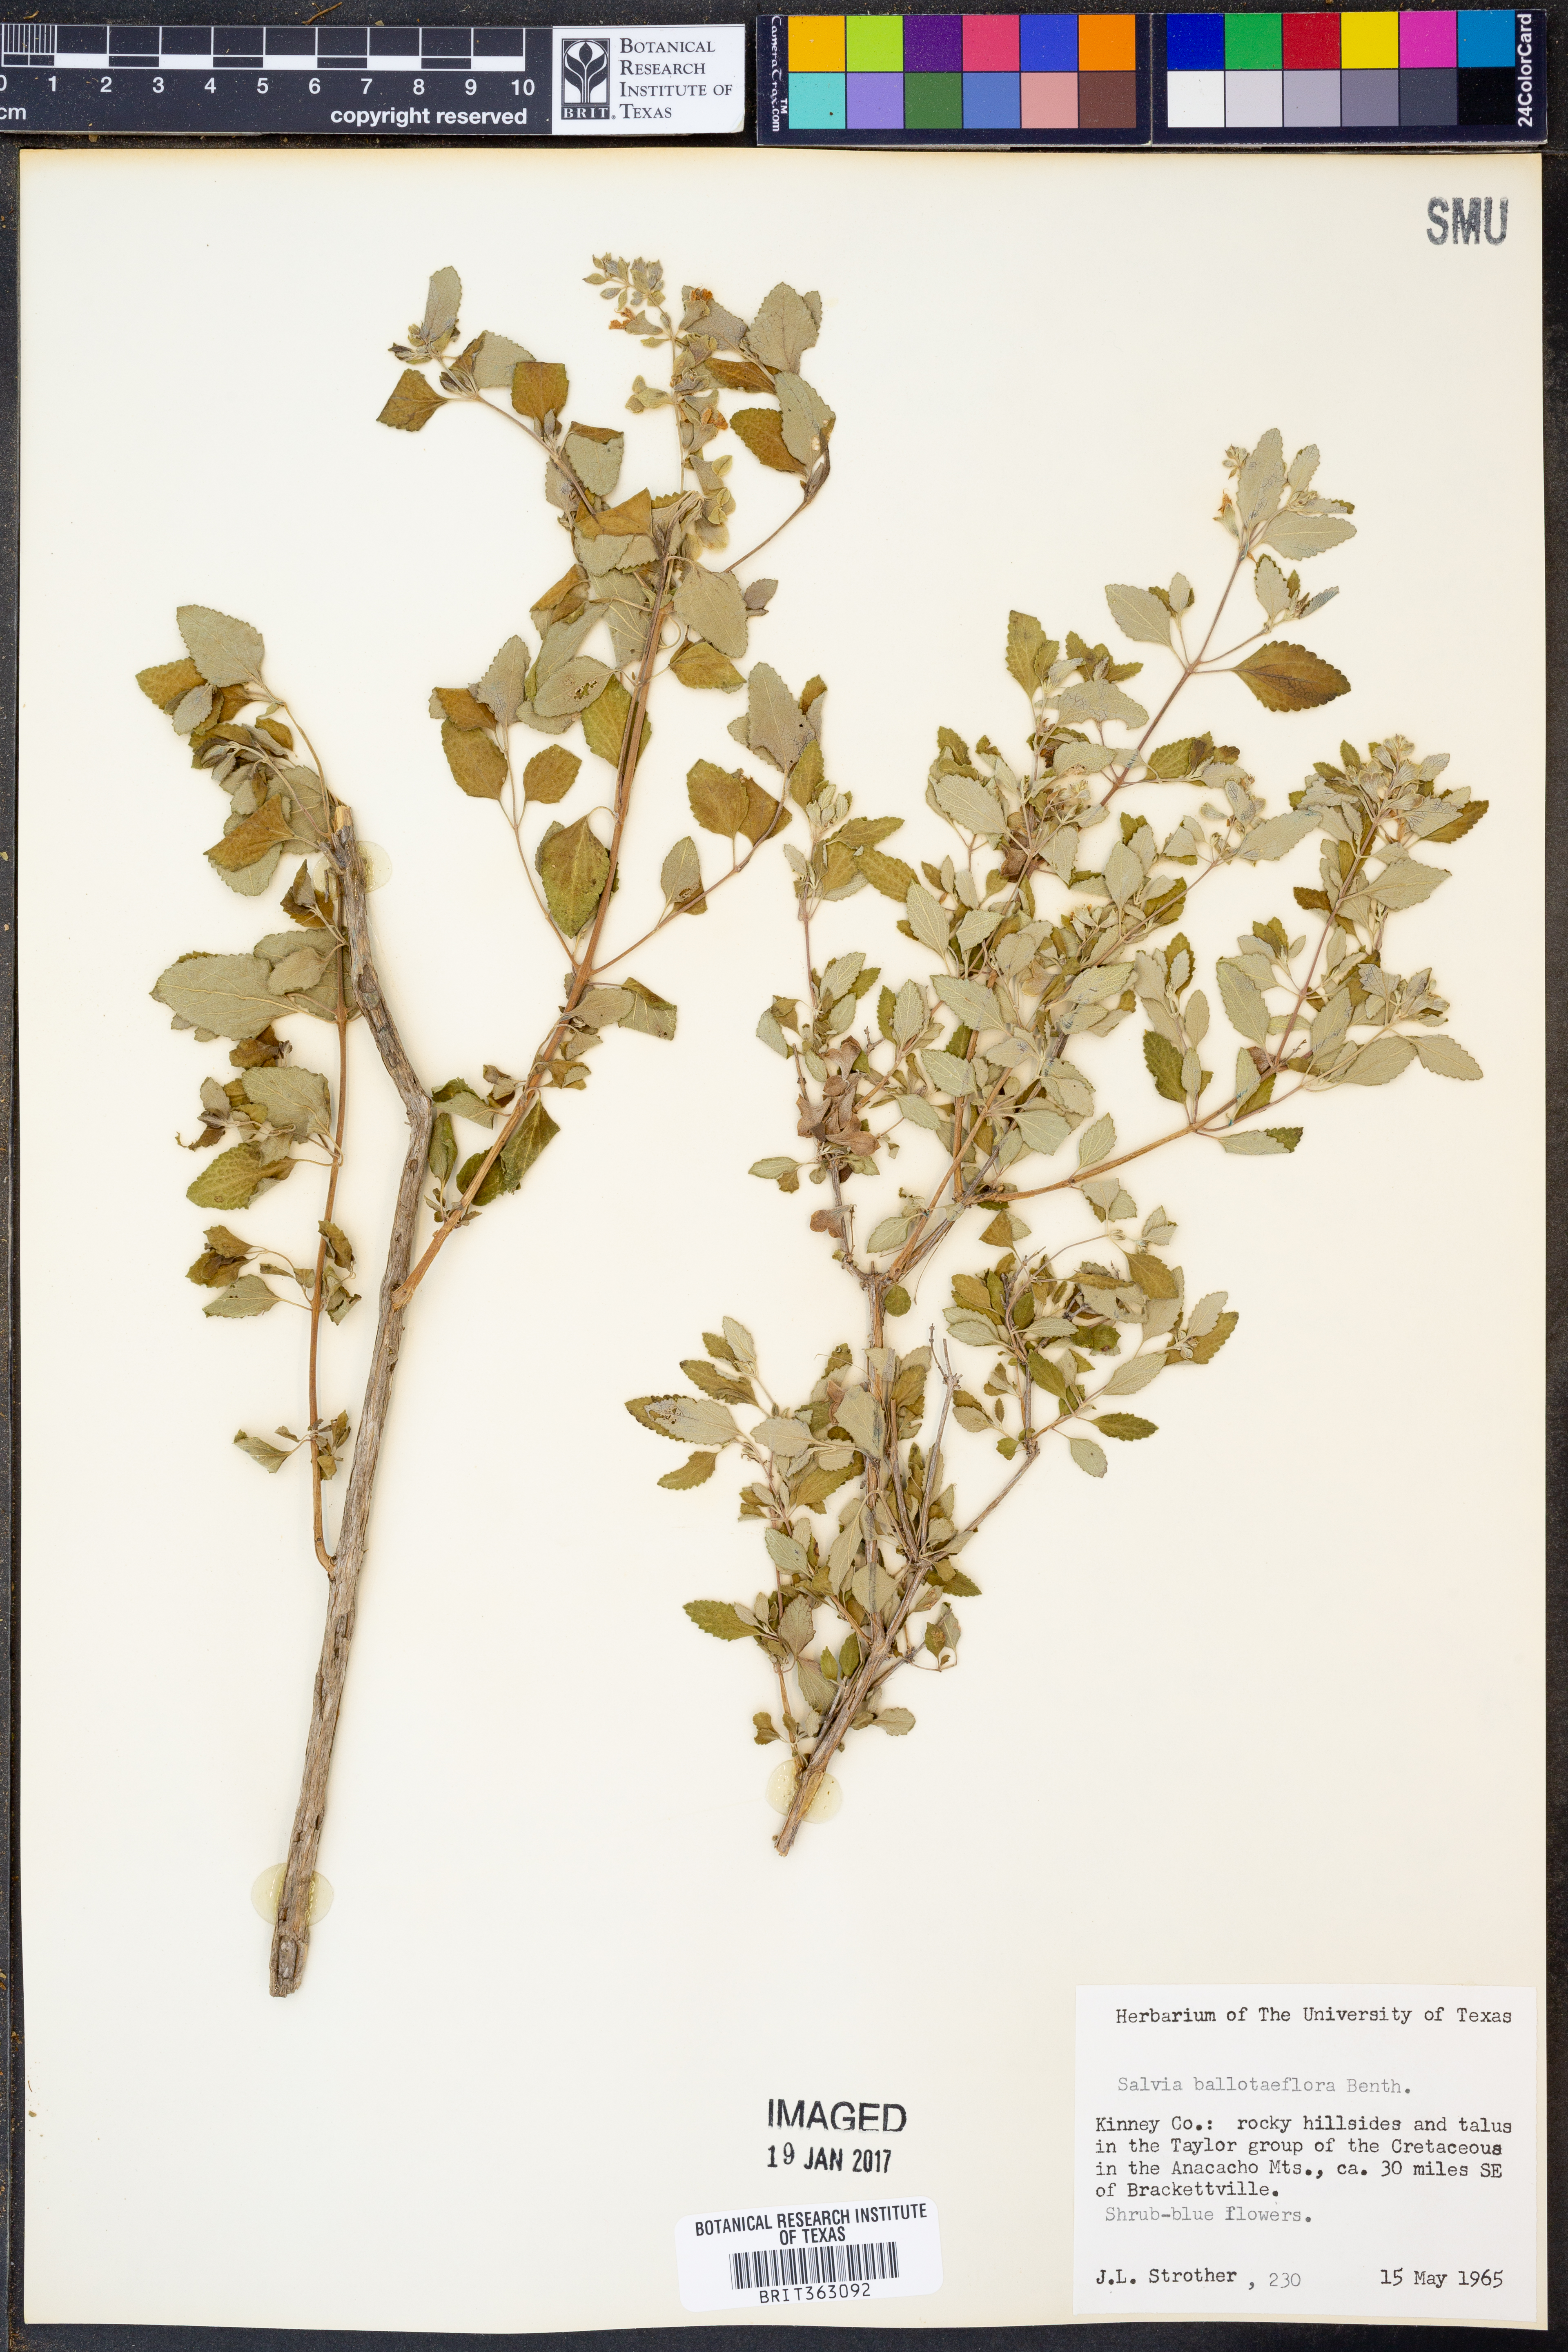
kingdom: Plantae
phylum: Tracheophyta
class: Magnoliopsida
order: Lamiales
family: Lamiaceae
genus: Salvia
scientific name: Salvia ballotiflora
